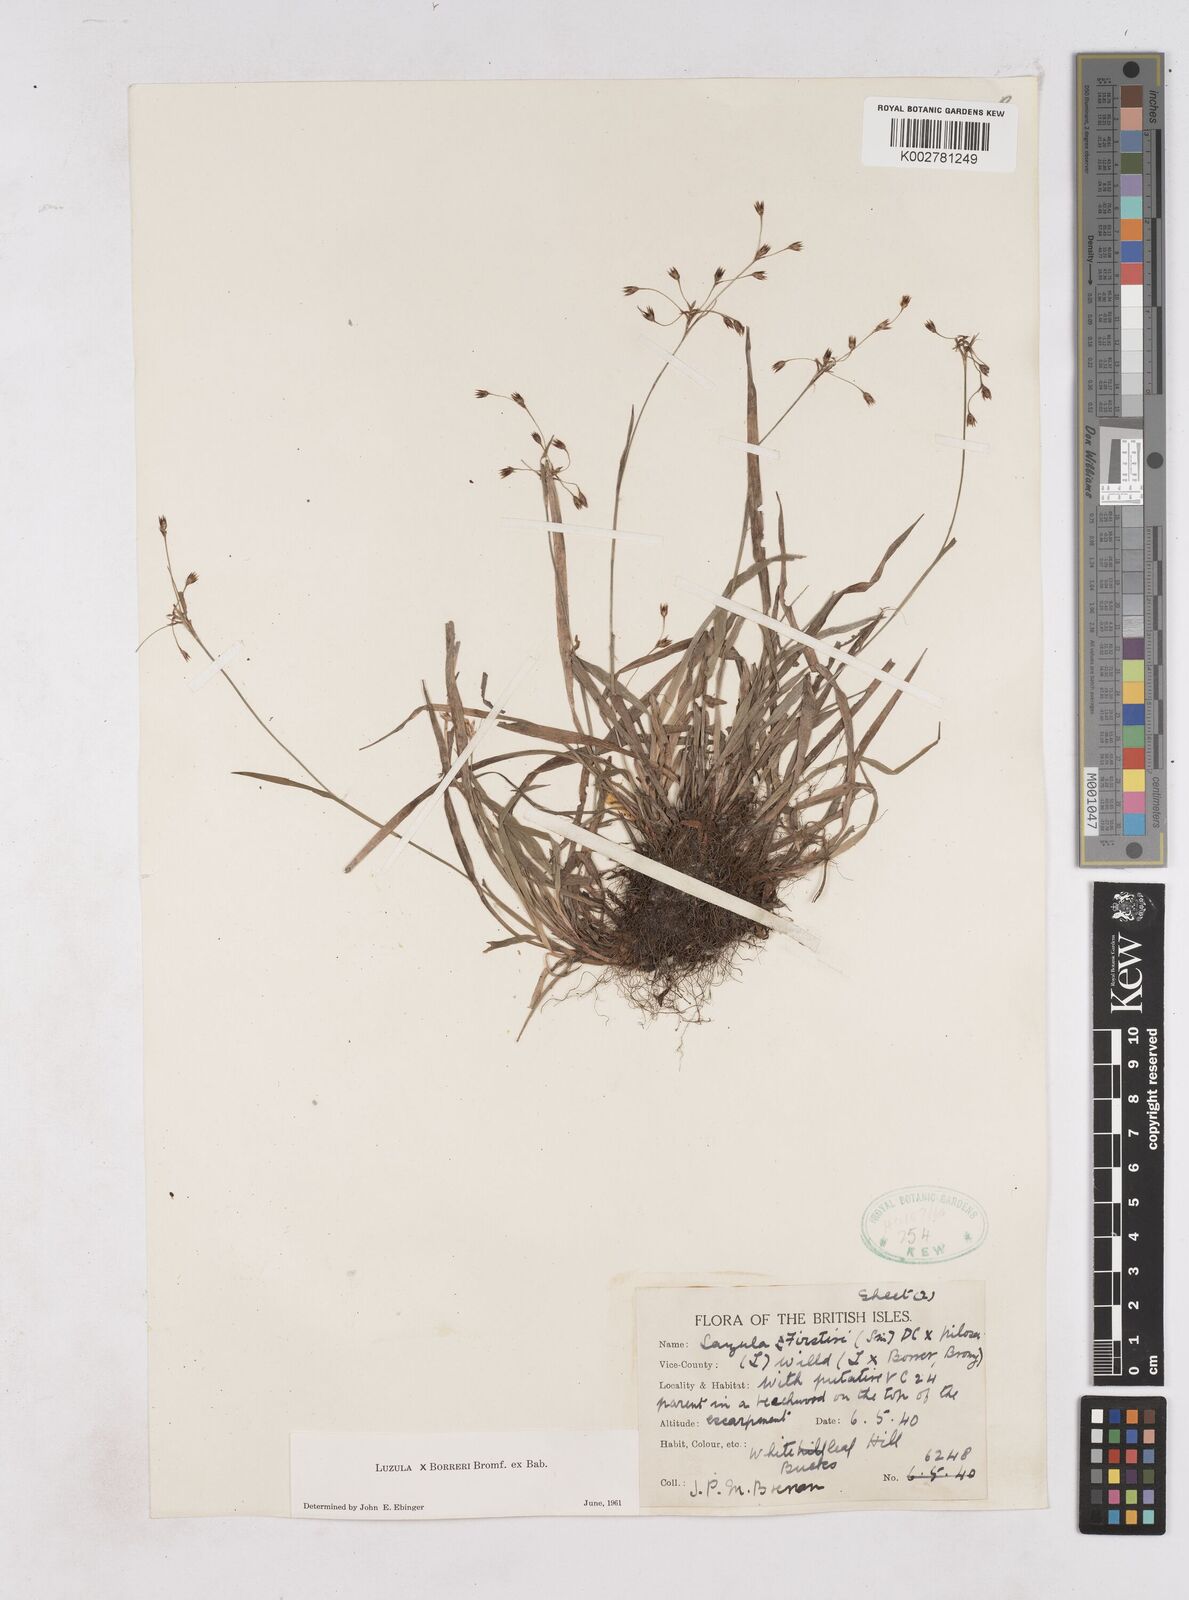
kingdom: Plantae
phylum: Tracheophyta
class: Liliopsida
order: Poales
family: Juncaceae
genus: Luzula
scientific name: Luzula forsteri
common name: Southern wood-rush
